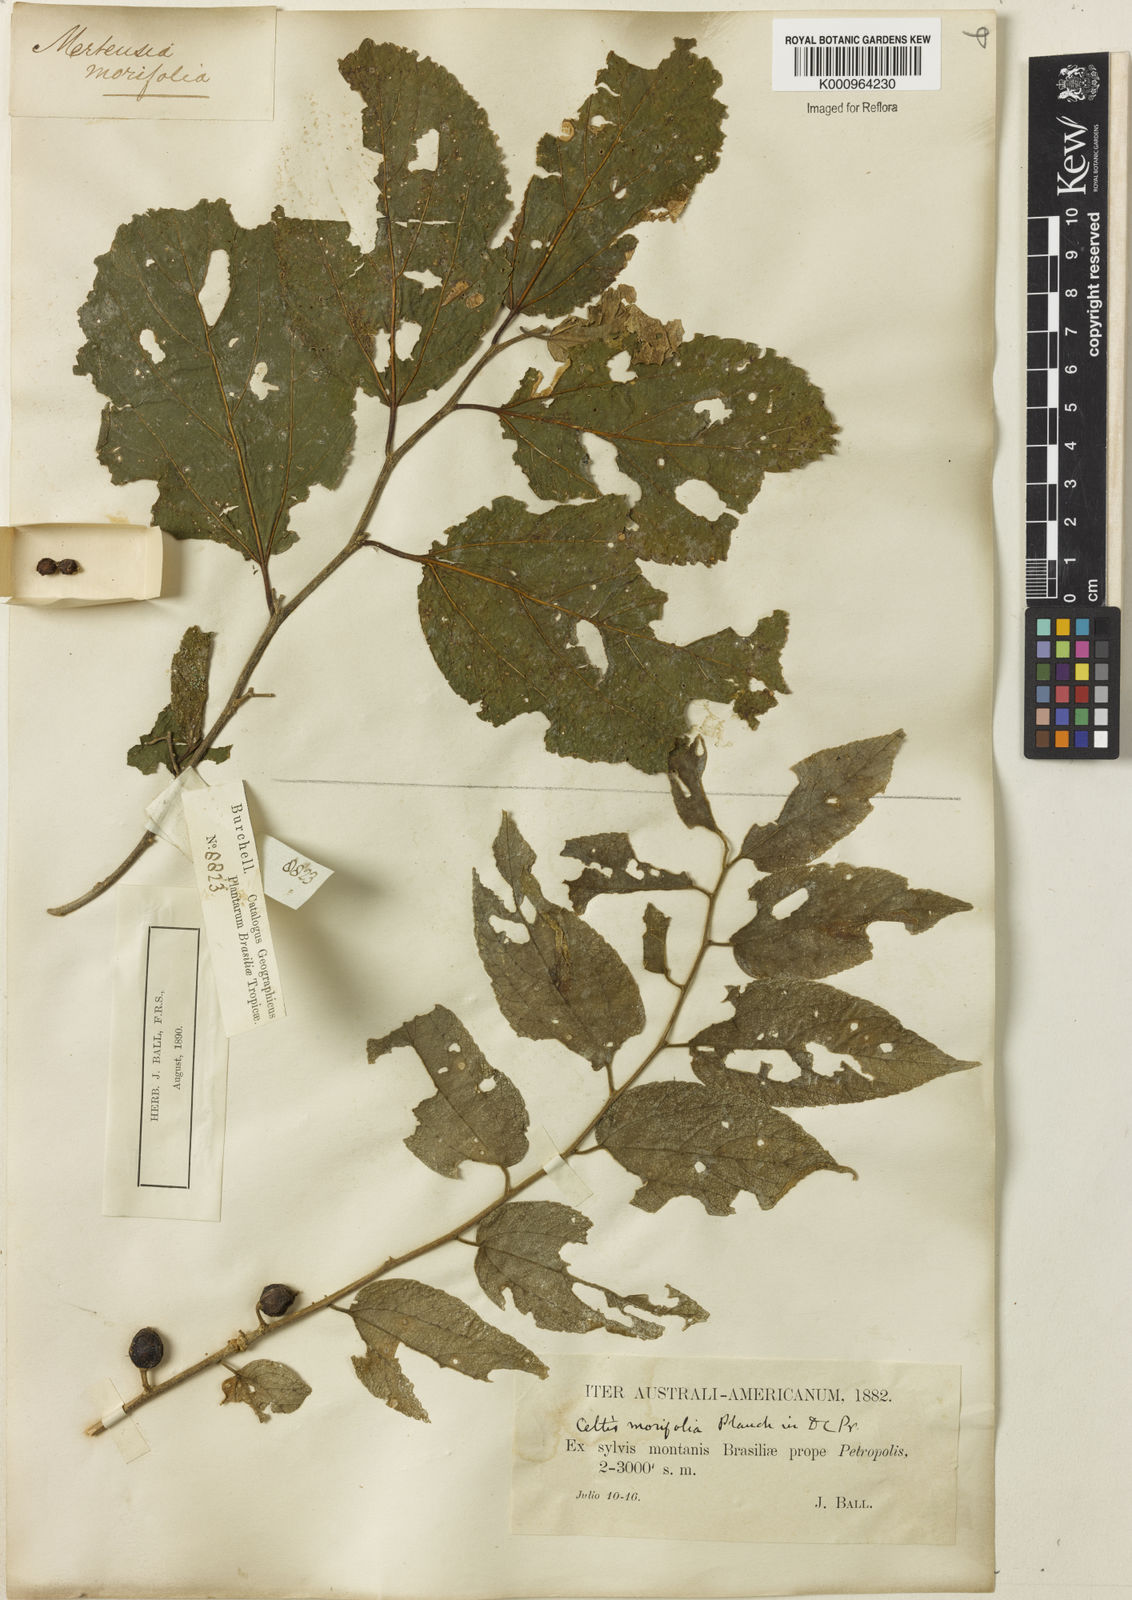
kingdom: Plantae
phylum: Tracheophyta
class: Magnoliopsida
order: Rosales
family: Cannabaceae
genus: Celtis
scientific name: Celtis iguanaea
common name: Iguana hackberry
